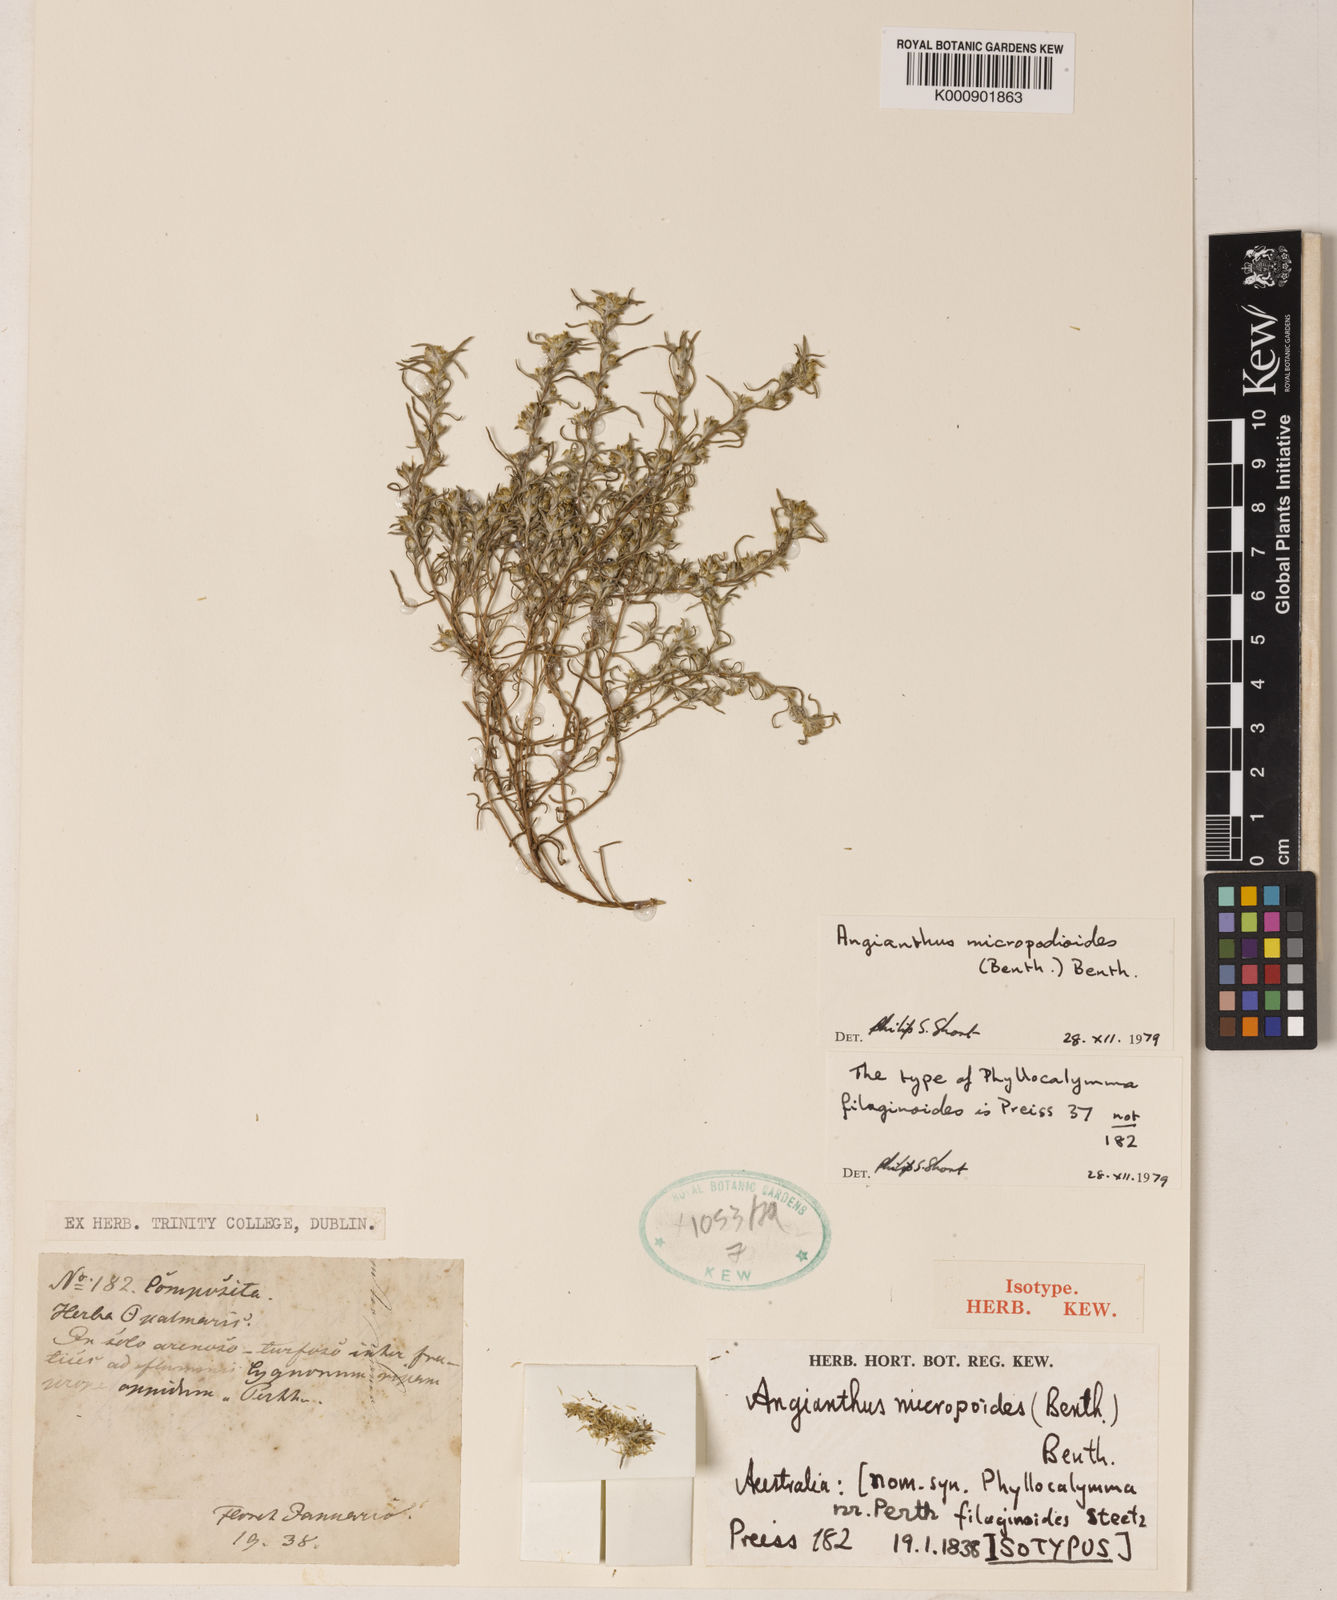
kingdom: Plantae
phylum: Tracheophyta
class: Magnoliopsida
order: Asterales
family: Asteraceae
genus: Angianthus
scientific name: Angianthus micropodioides
